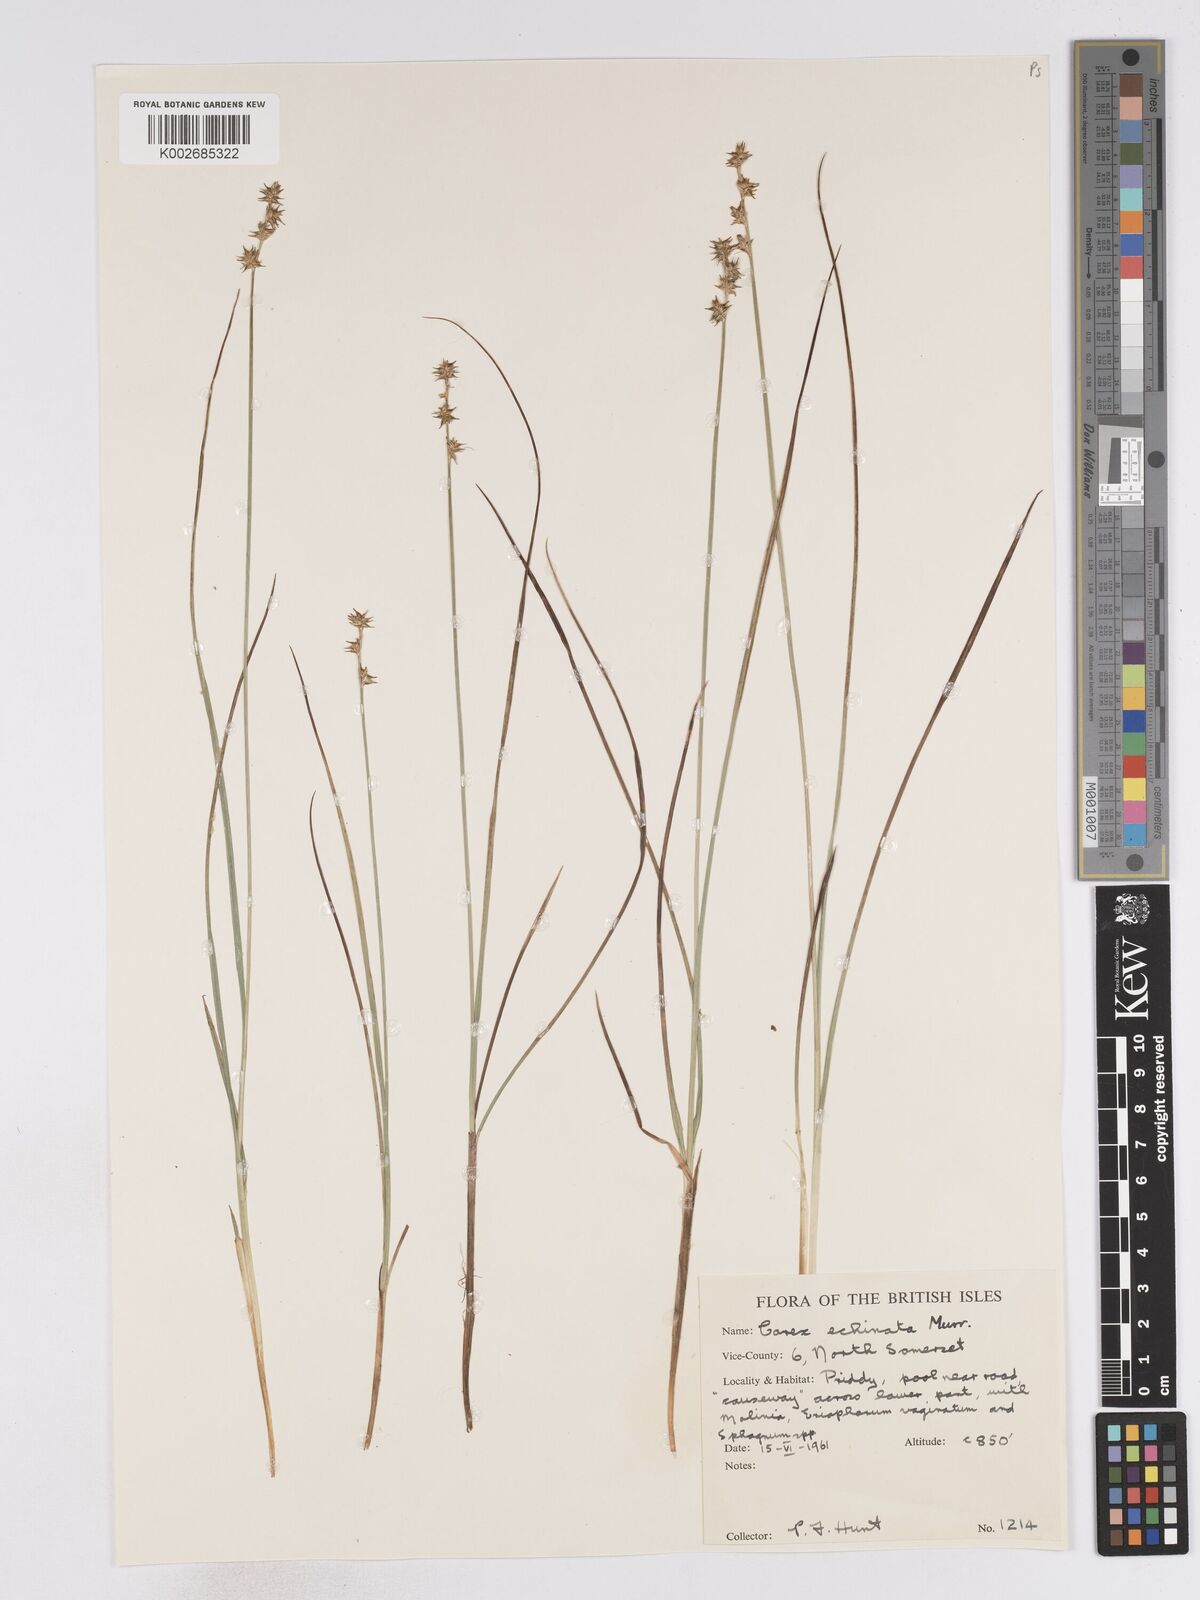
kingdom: Plantae
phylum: Tracheophyta
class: Liliopsida
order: Poales
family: Cyperaceae
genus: Carex
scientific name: Carex echinata
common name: Star sedge
